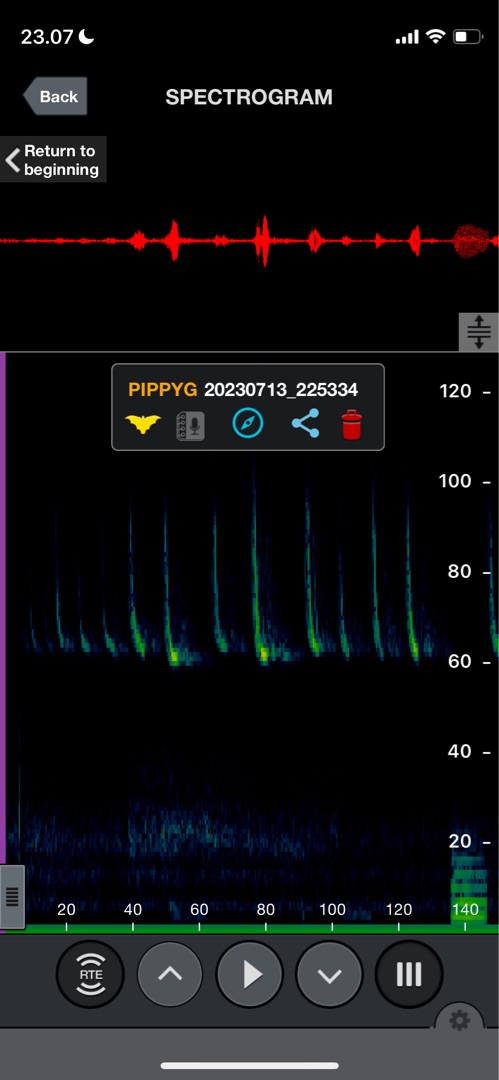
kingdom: Animalia
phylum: Chordata
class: Mammalia
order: Chiroptera
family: Vespertilionidae
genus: Pipistrellus
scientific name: Pipistrellus pygmaeus
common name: Dværgflagermus
